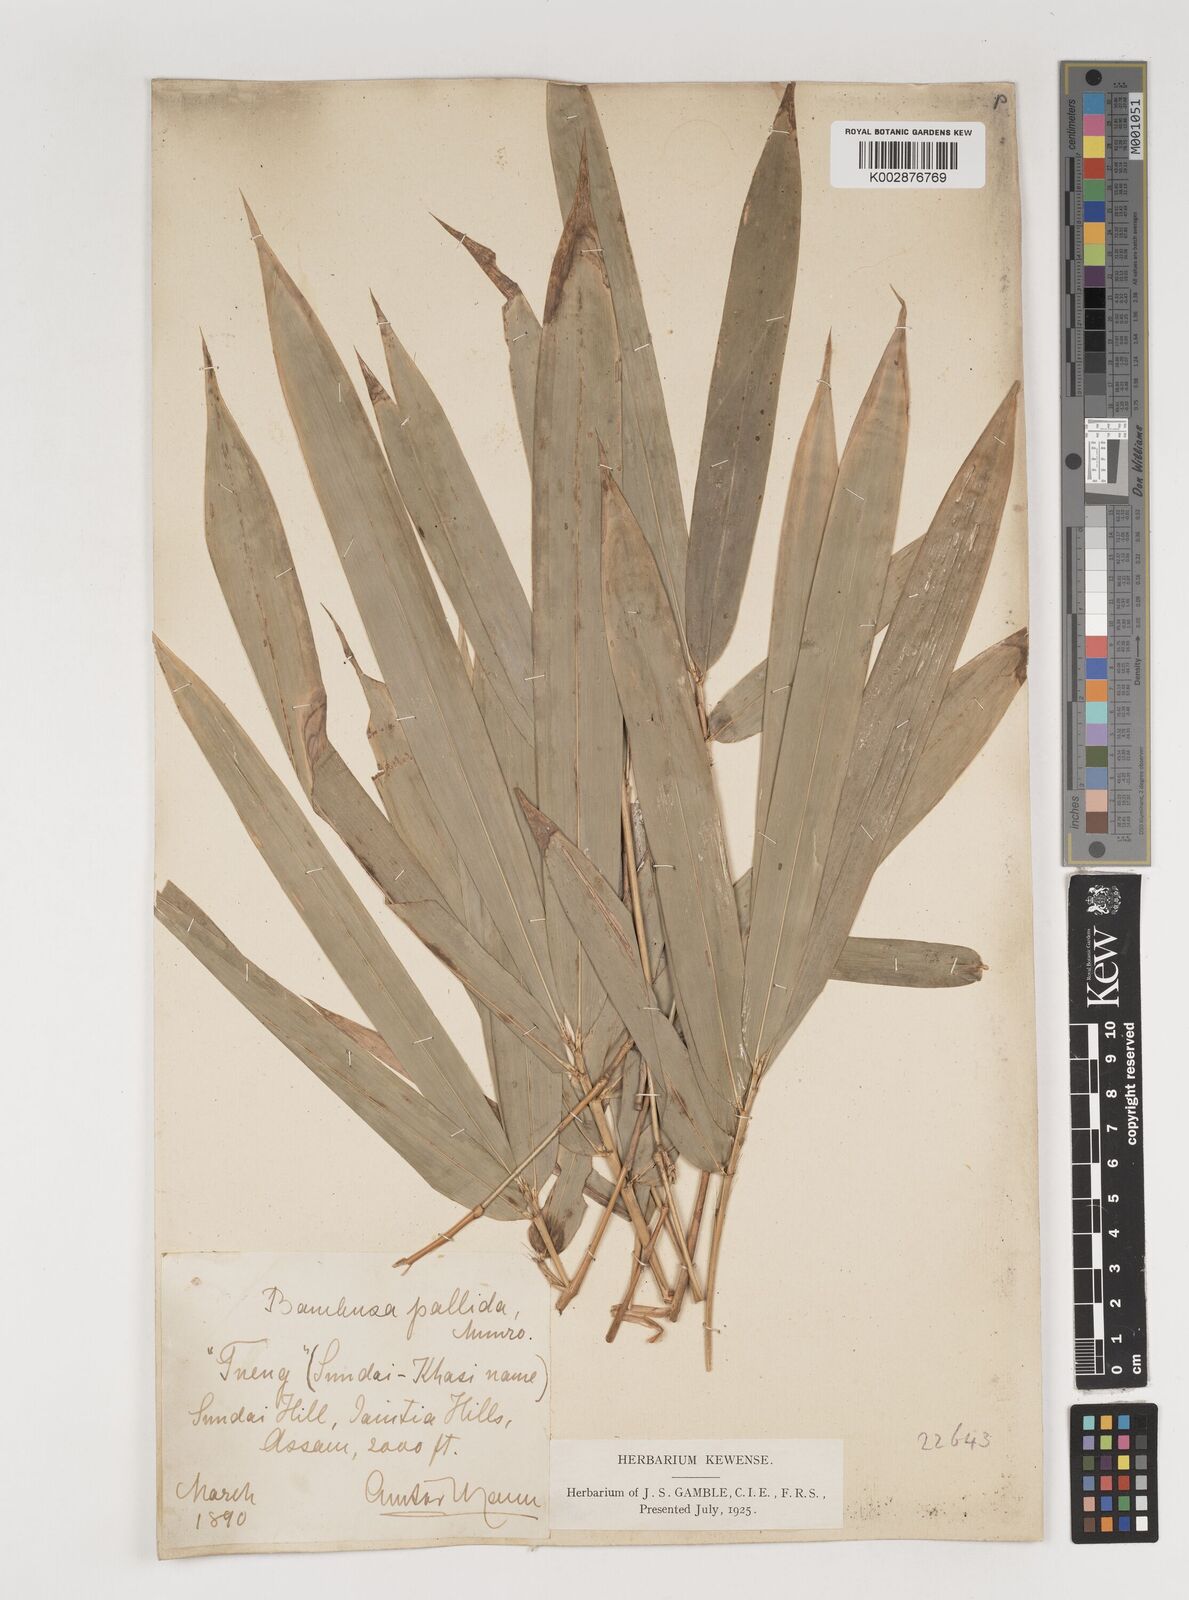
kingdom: Plantae
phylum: Tracheophyta
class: Liliopsida
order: Poales
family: Poaceae
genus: Bambusa
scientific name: Bambusa pallida
